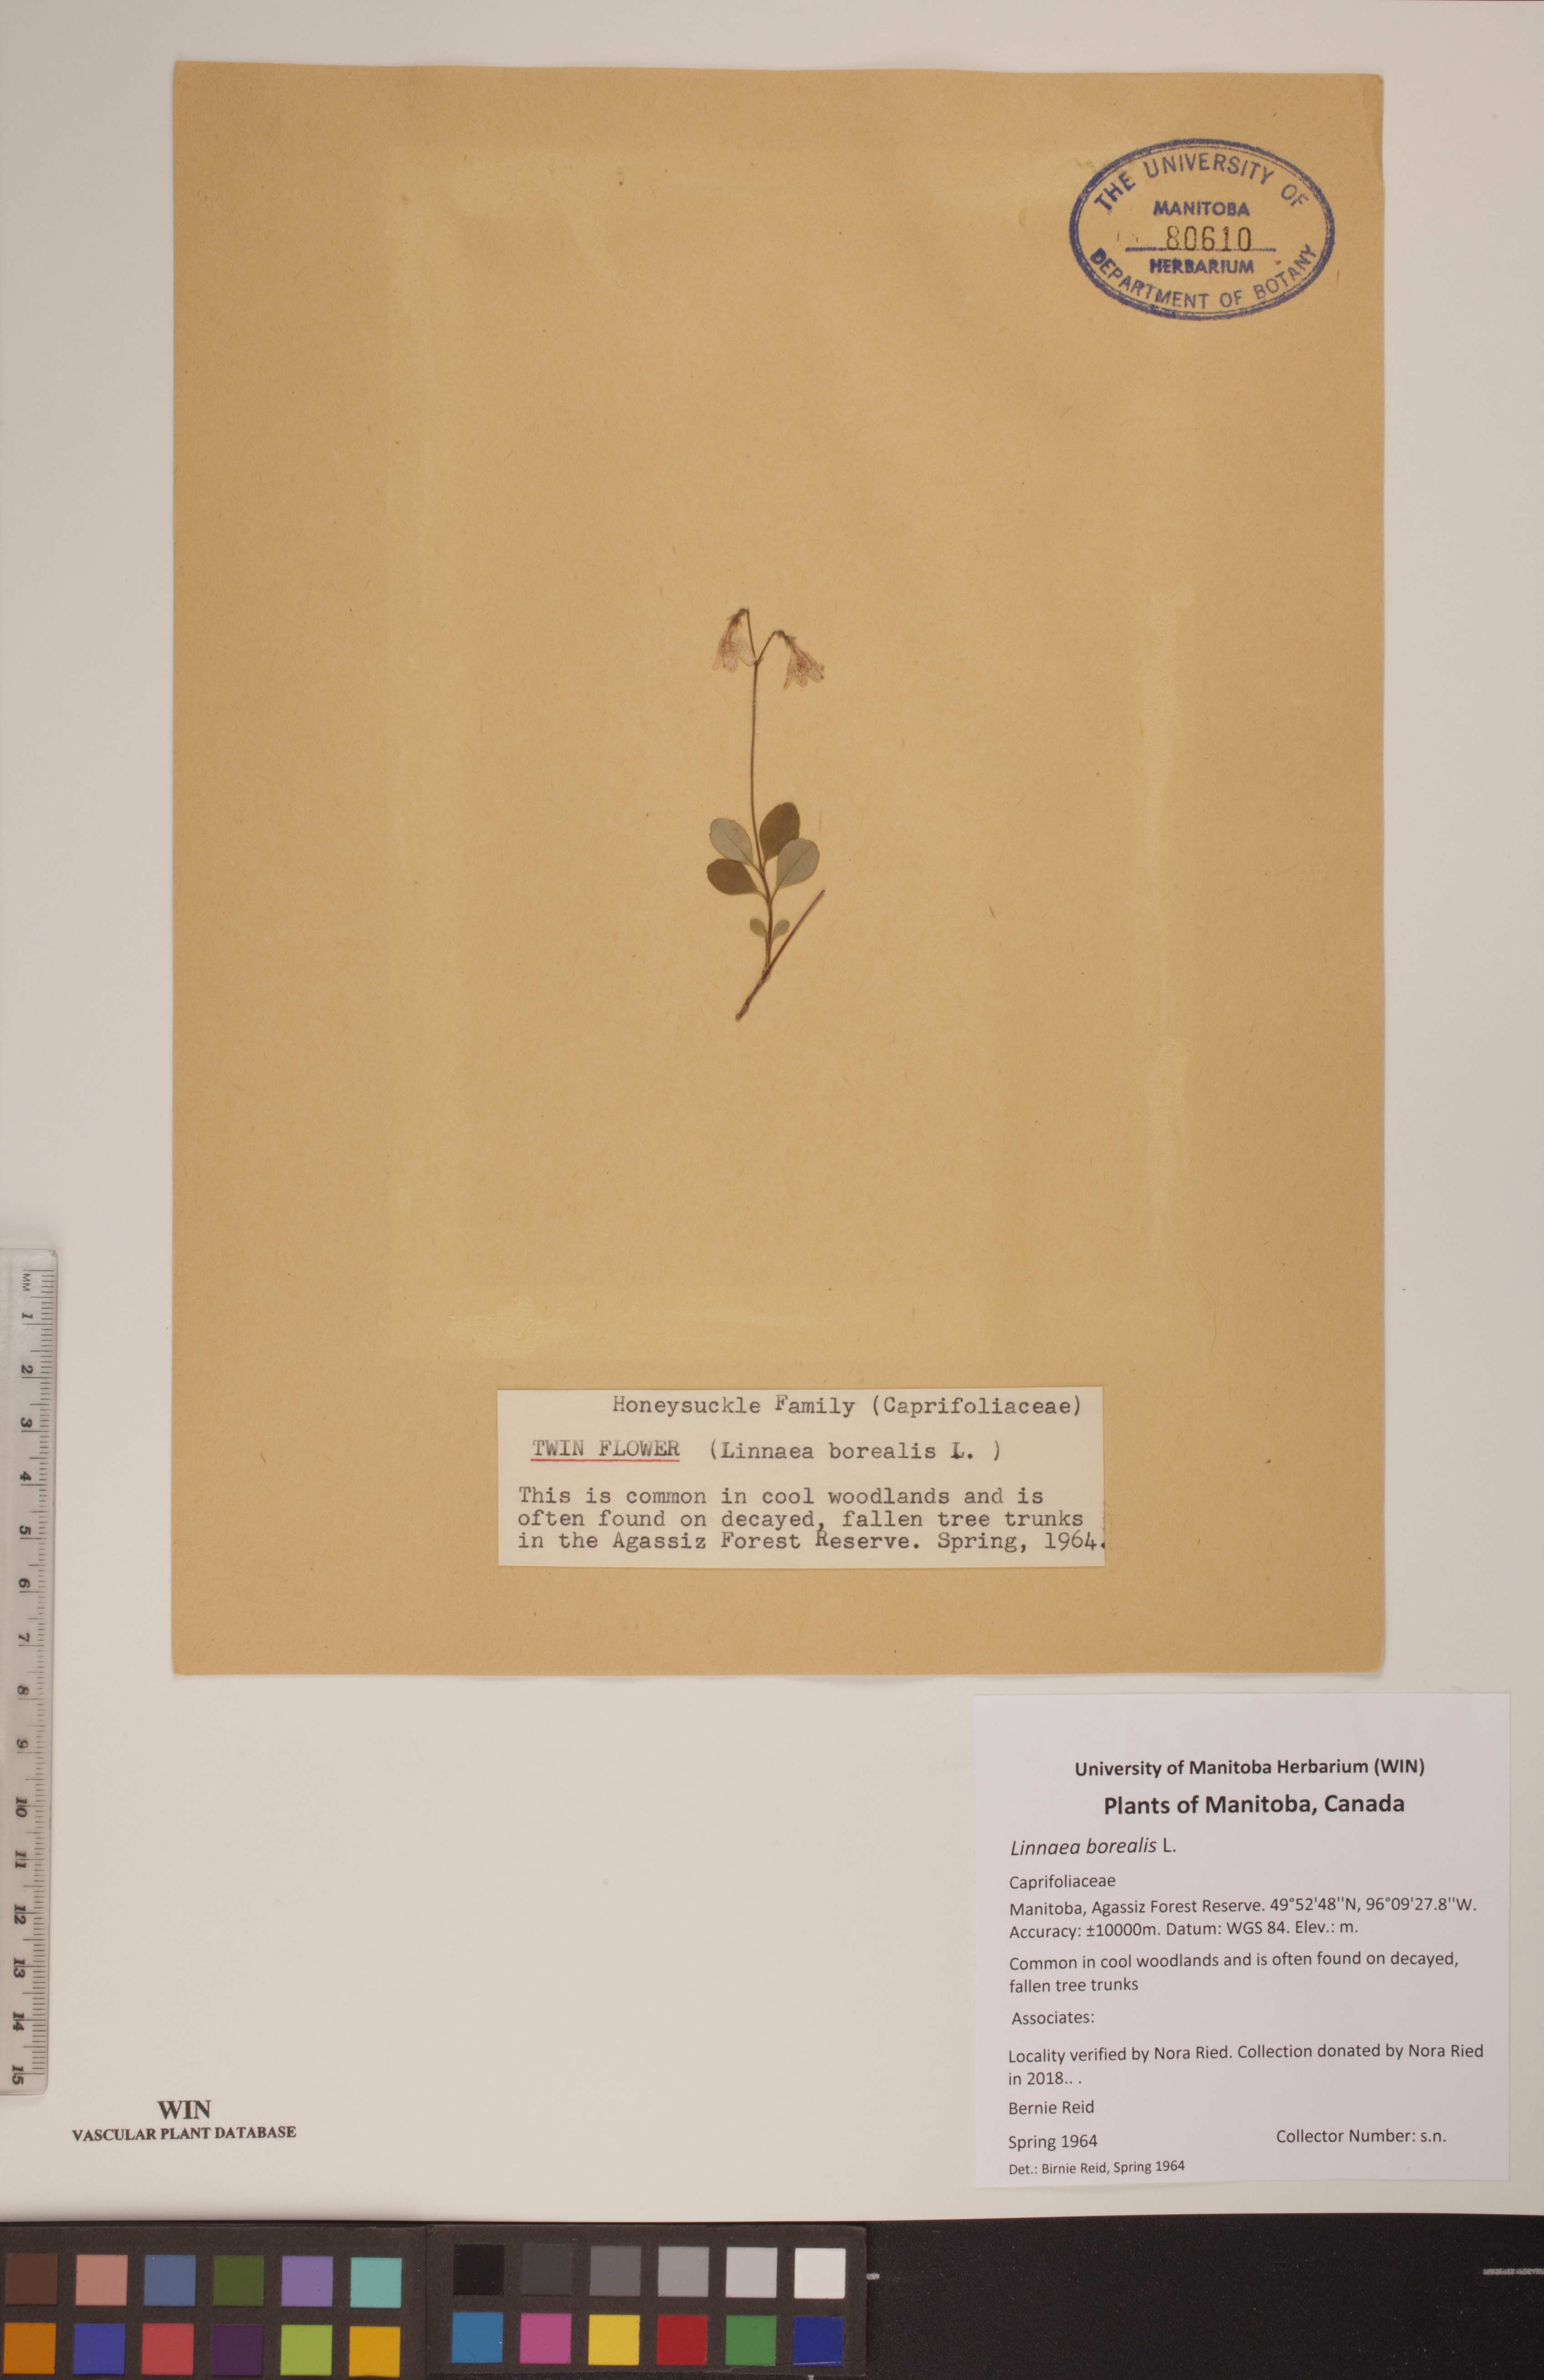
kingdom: Plantae
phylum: Tracheophyta
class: Magnoliopsida
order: Dipsacales
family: Caprifoliaceae
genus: Linnaea
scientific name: Linnaea borealis
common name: Twinflower
